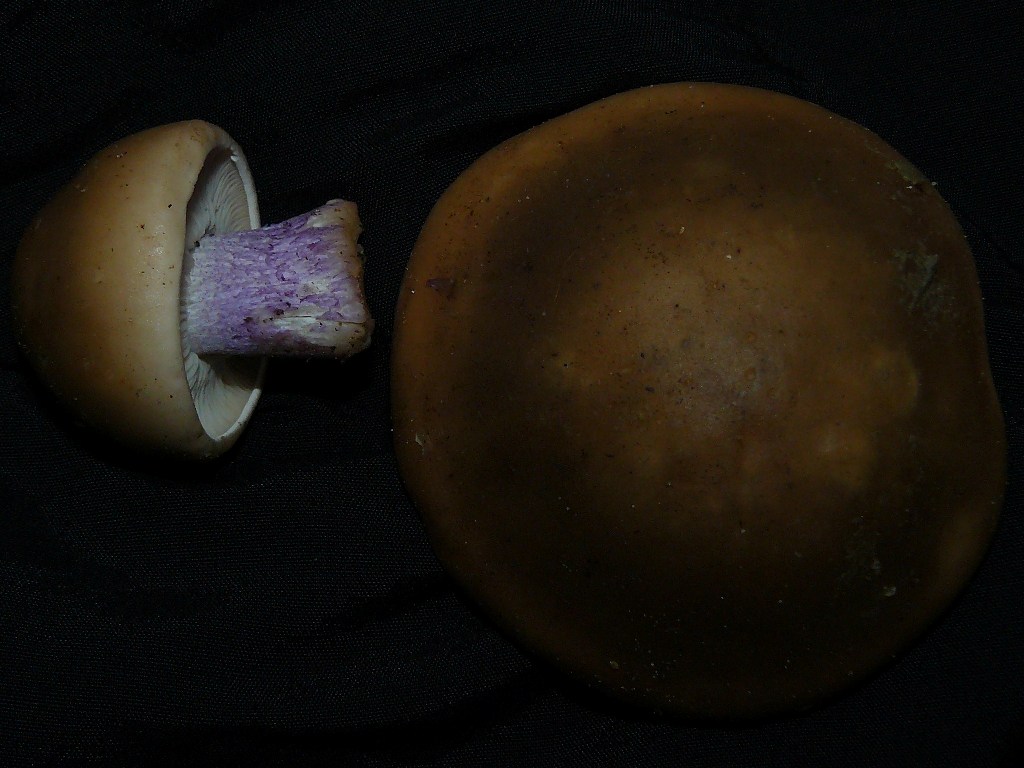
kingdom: Fungi
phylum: Basidiomycota
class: Agaricomycetes
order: Agaricales
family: Tricholomataceae
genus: Lepista
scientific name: Lepista personata
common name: bleg hekseringshat
